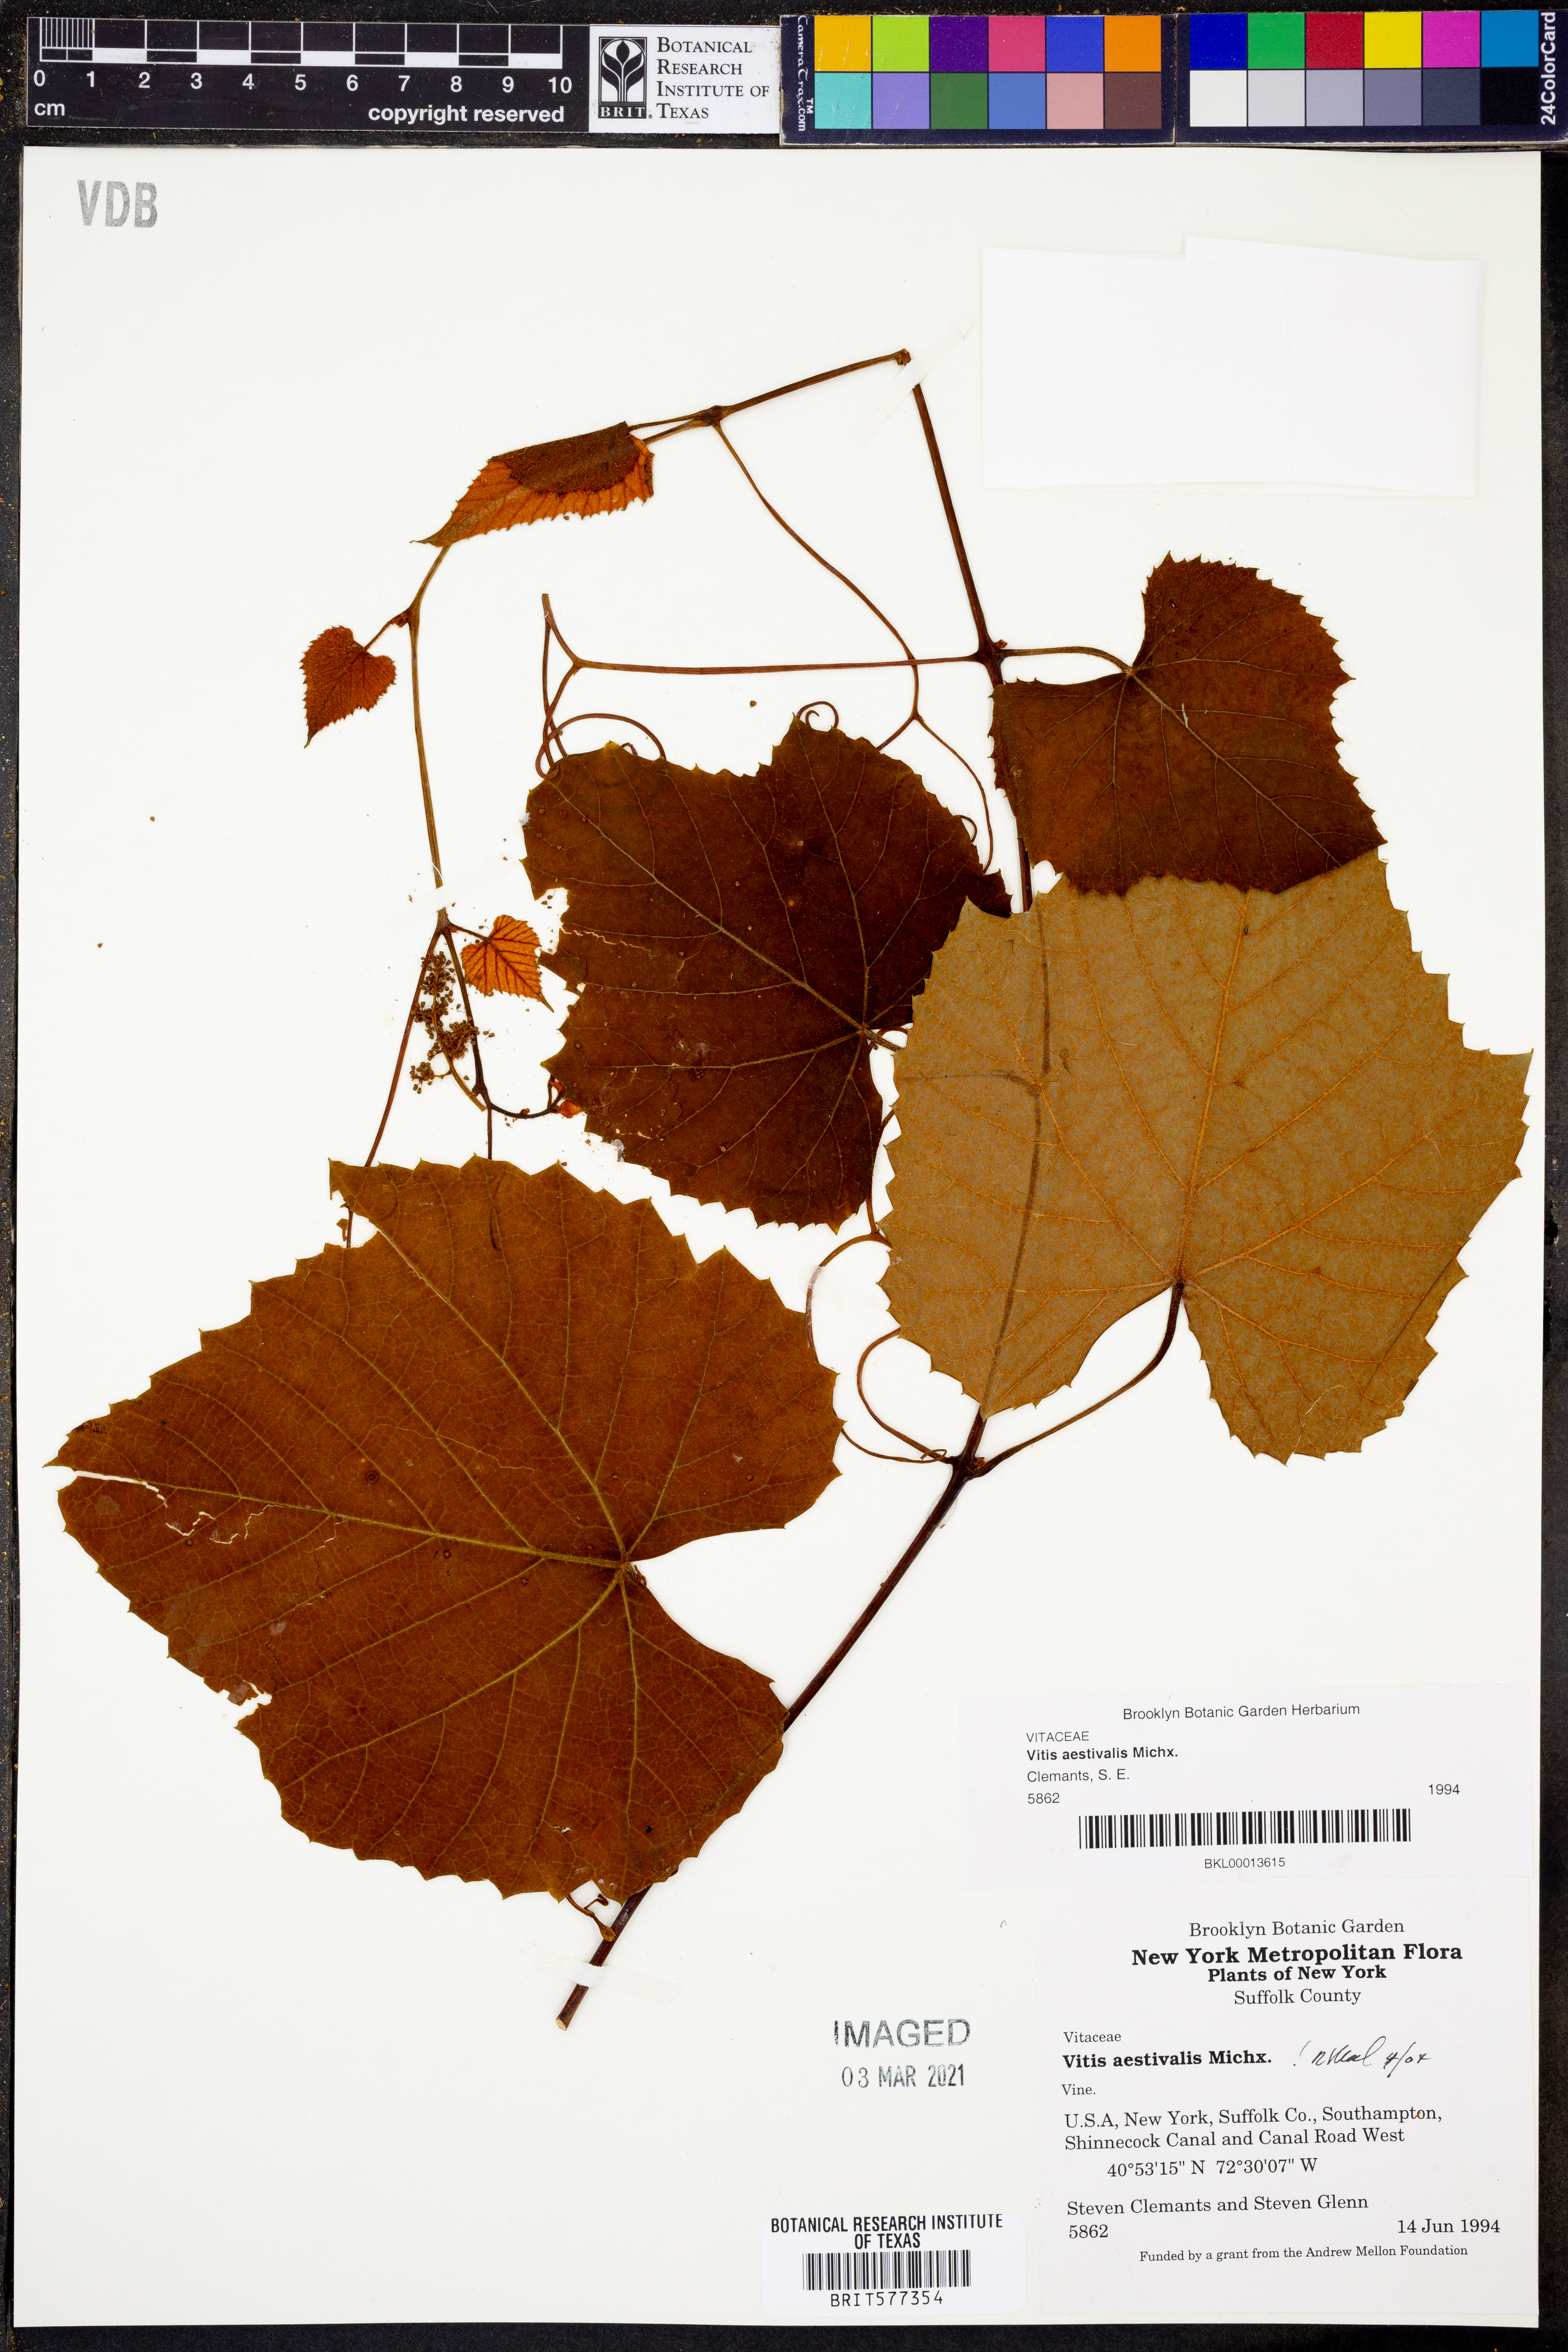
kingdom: Plantae
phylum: Tracheophyta
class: Magnoliopsida
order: Vitales
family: Vitaceae
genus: Vitis
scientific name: Vitis aestivalis
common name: Pigeon grape
